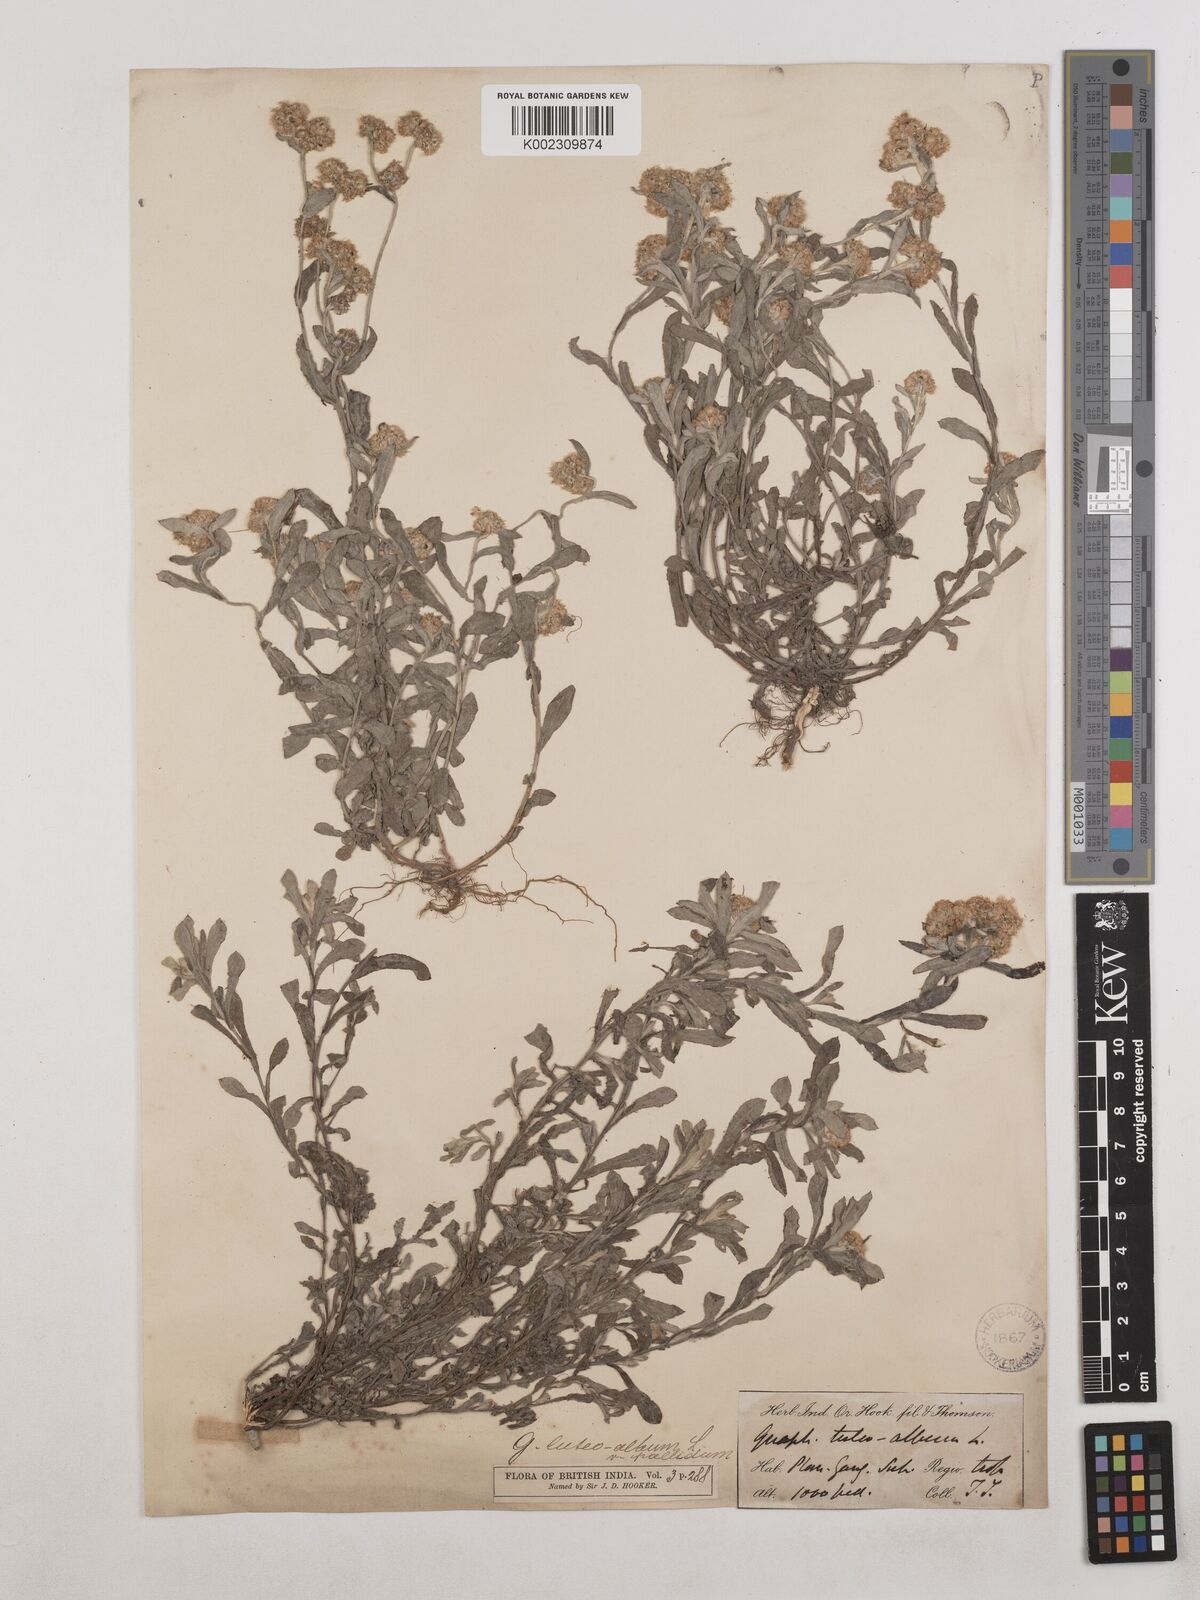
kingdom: Plantae
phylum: Tracheophyta
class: Magnoliopsida
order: Asterales
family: Asteraceae
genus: Helichrysum
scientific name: Helichrysum luteoalbum
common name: Daisy
